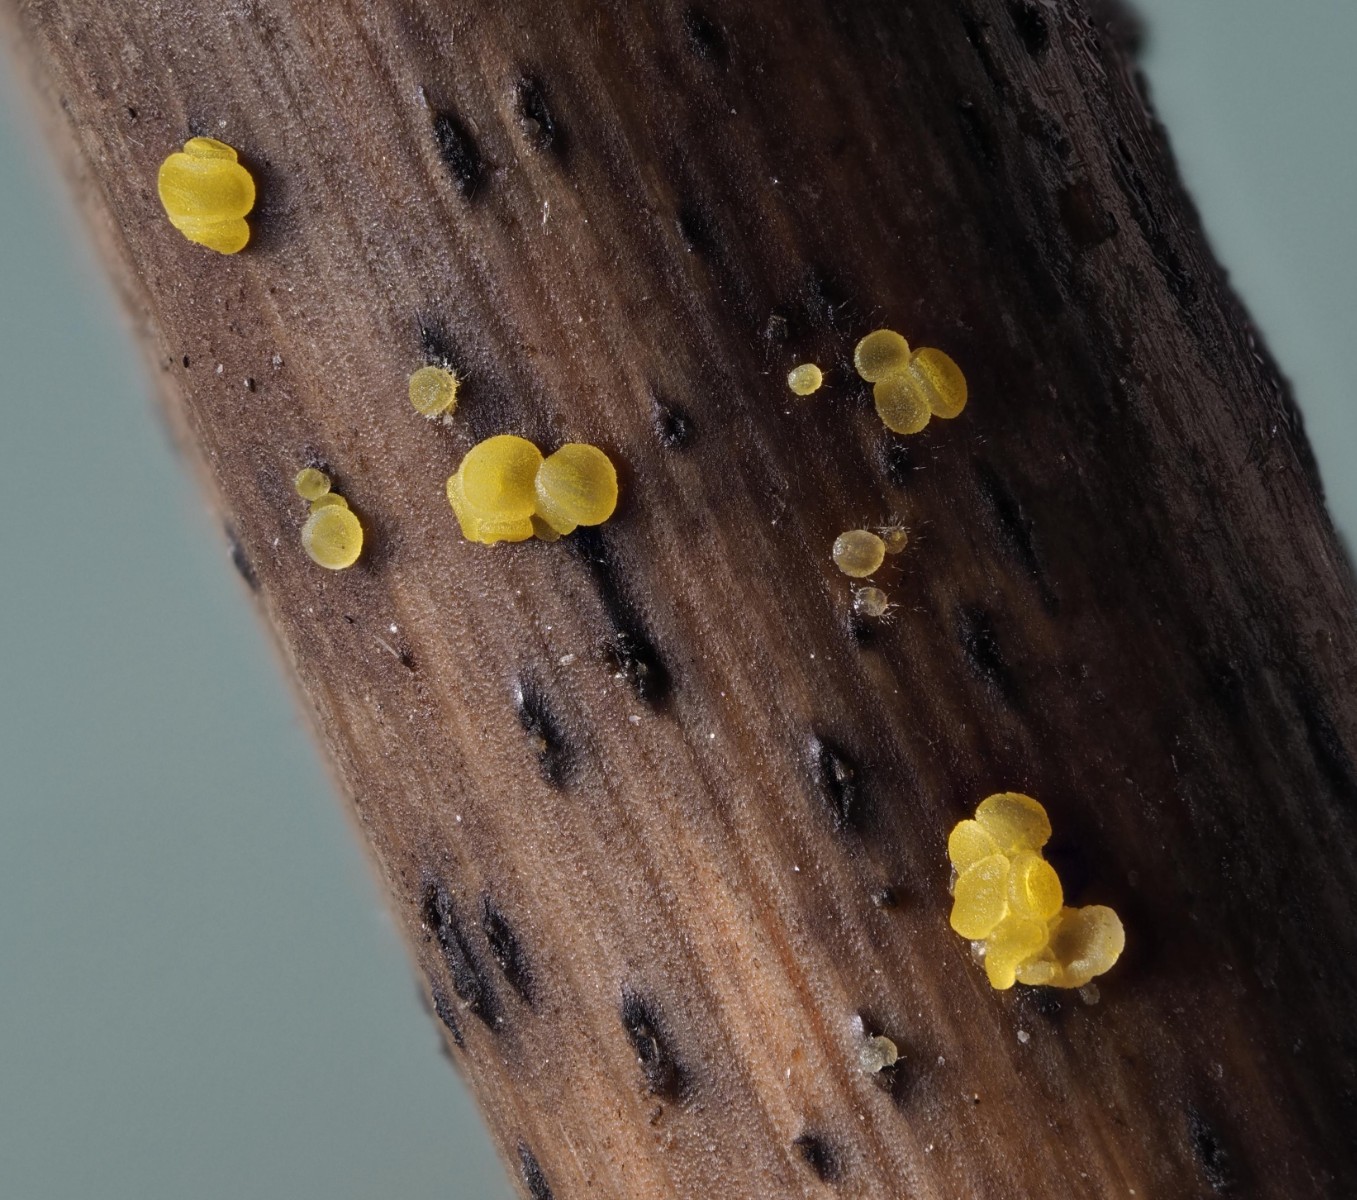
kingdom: Fungi
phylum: Ascomycota
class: Leotiomycetes
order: Helotiales
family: Pezizellaceae
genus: Calycina
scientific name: Calycina scolochloae
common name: bambus-gulskive
